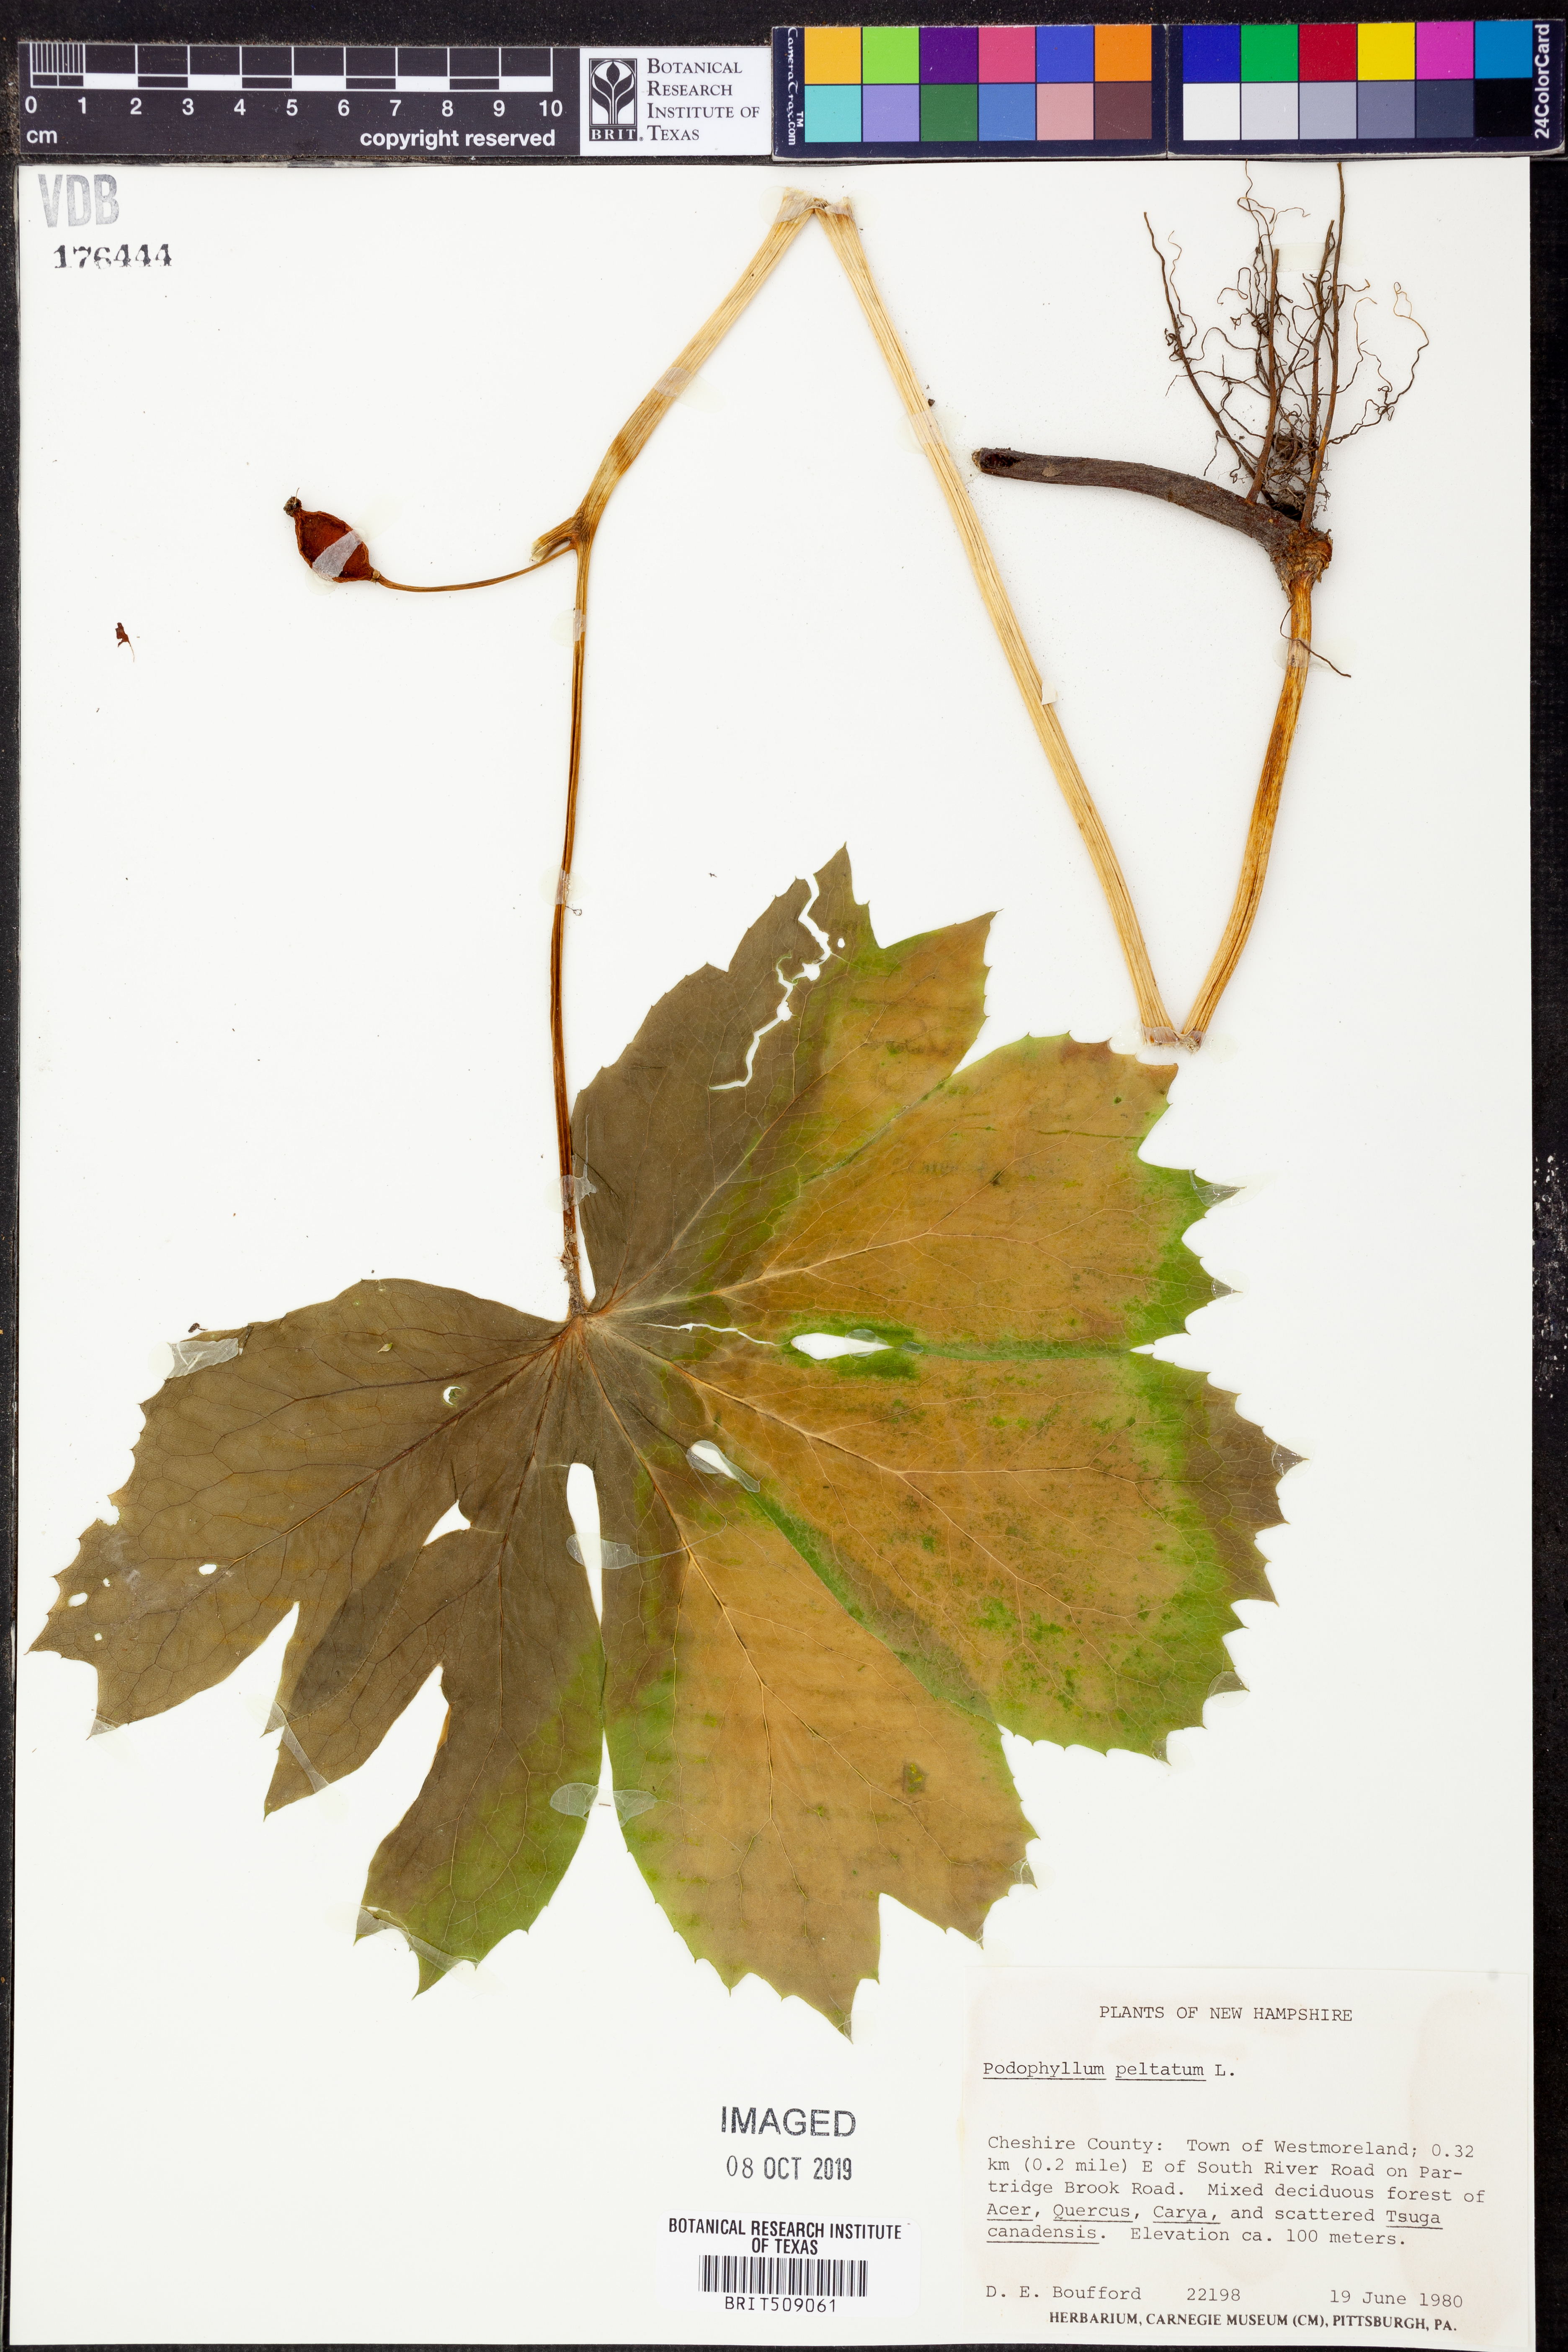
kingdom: Plantae
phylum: Tracheophyta
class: Magnoliopsida
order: Ranunculales
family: Berberidaceae
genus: Podophyllum
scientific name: Podophyllum peltatum
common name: Wild mandrake
